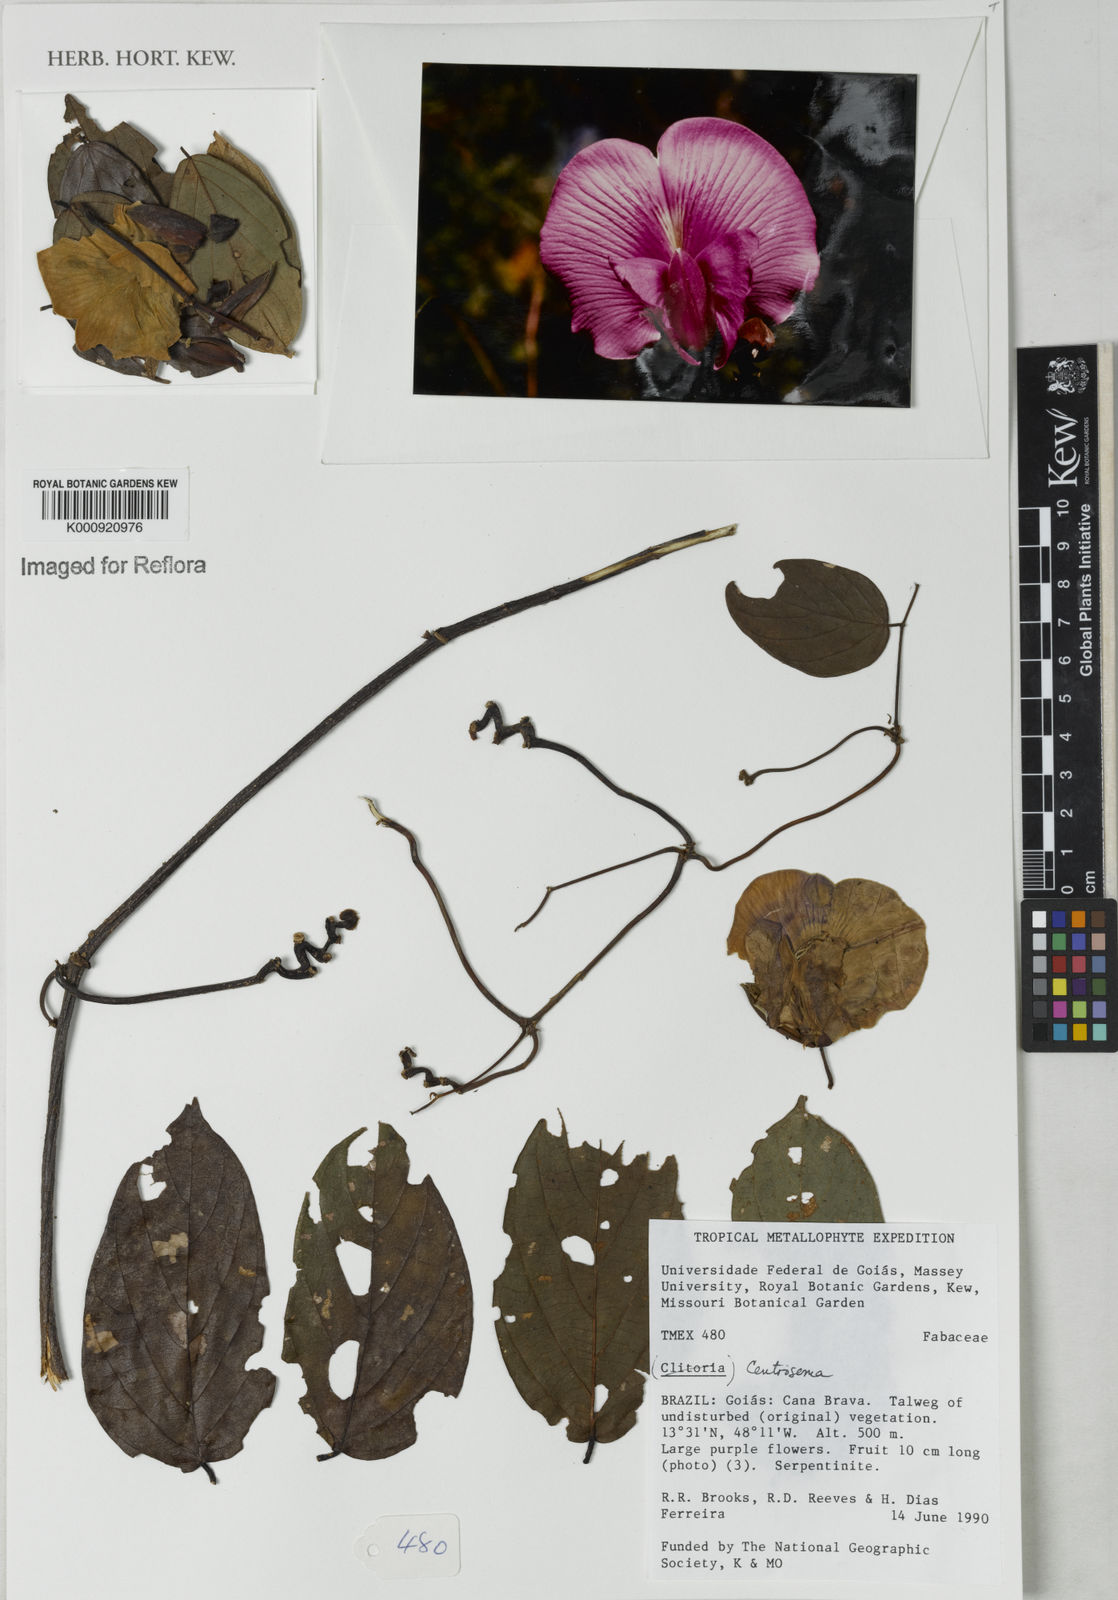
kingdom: Plantae
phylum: Tracheophyta
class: Magnoliopsida
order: Fabales
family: Fabaceae
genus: Centrosema
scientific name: Centrosema
